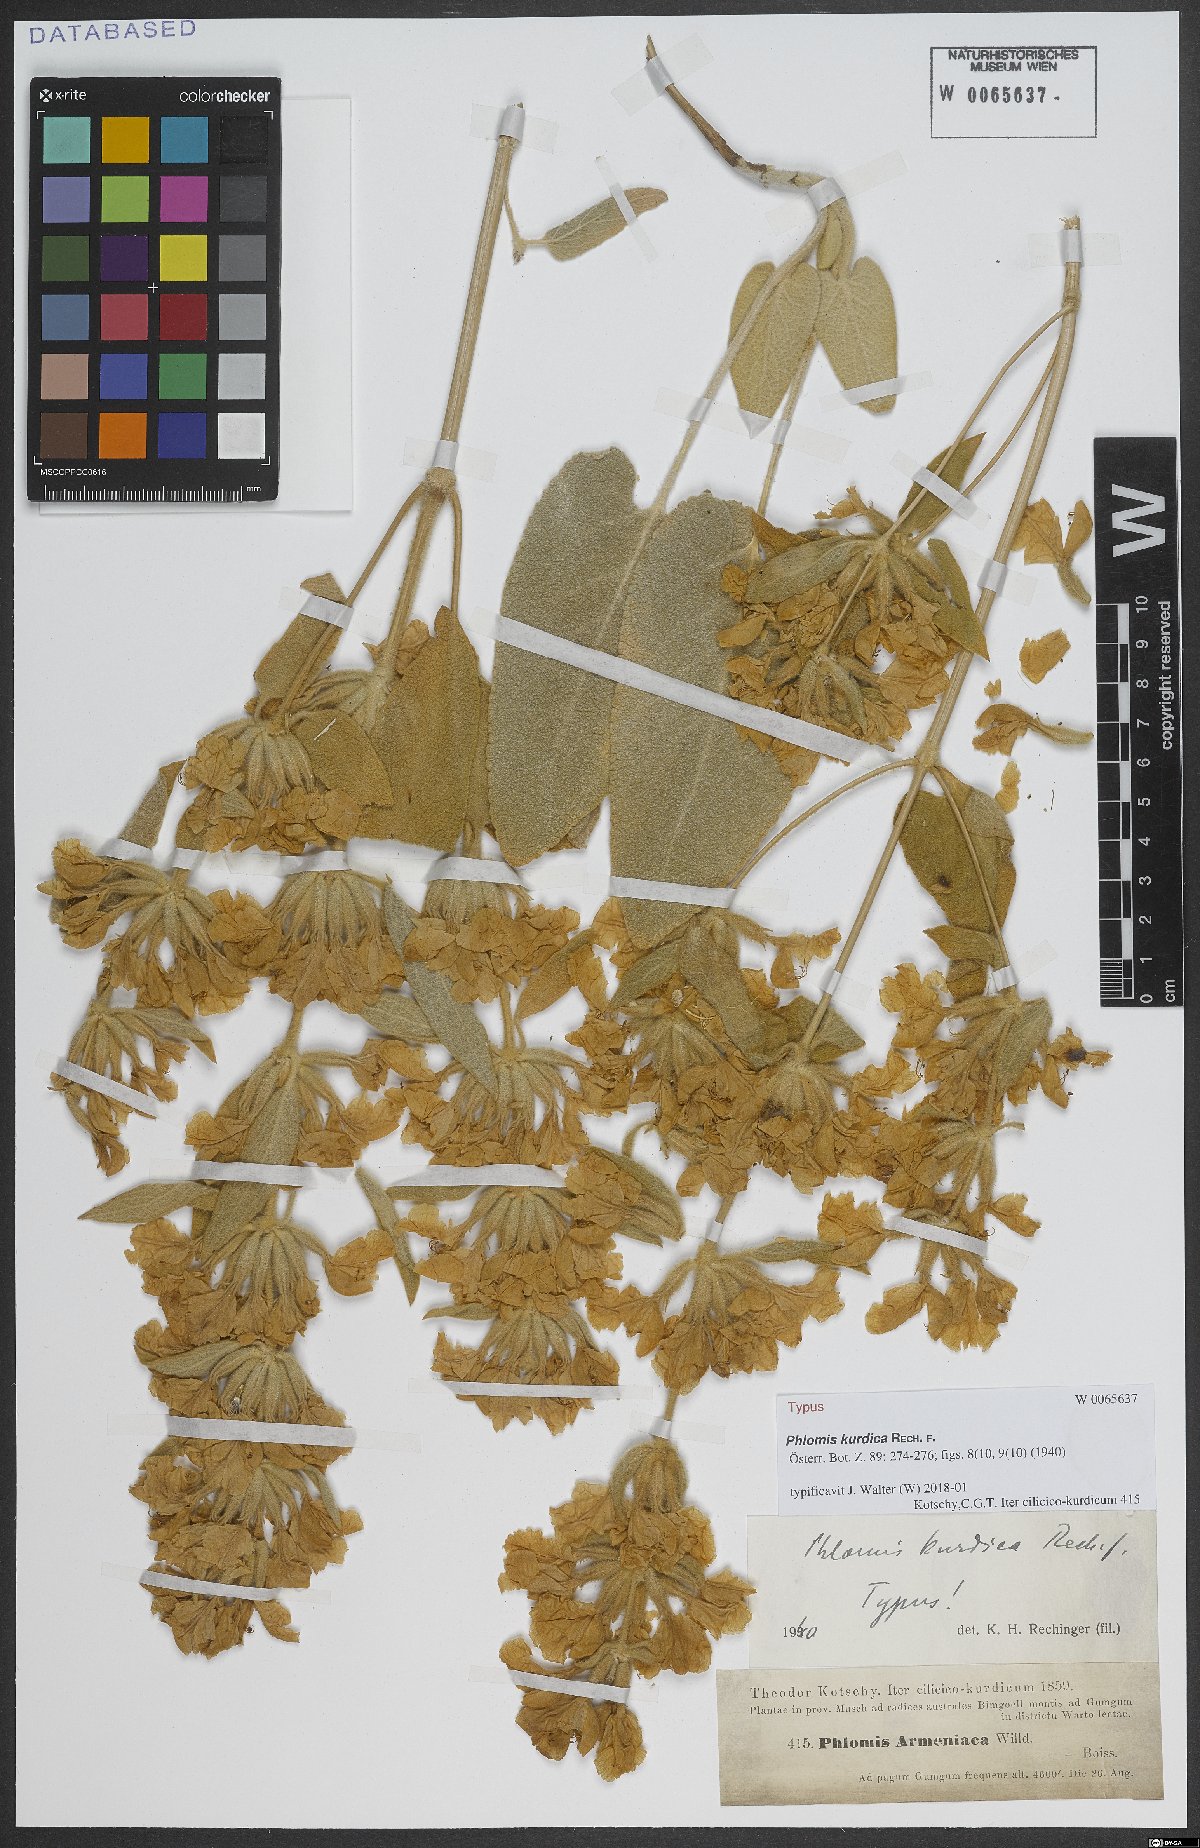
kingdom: Plantae
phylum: Tracheophyta
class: Magnoliopsida
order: Lamiales
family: Lamiaceae
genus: Phlomis
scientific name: Phlomis kurdica
